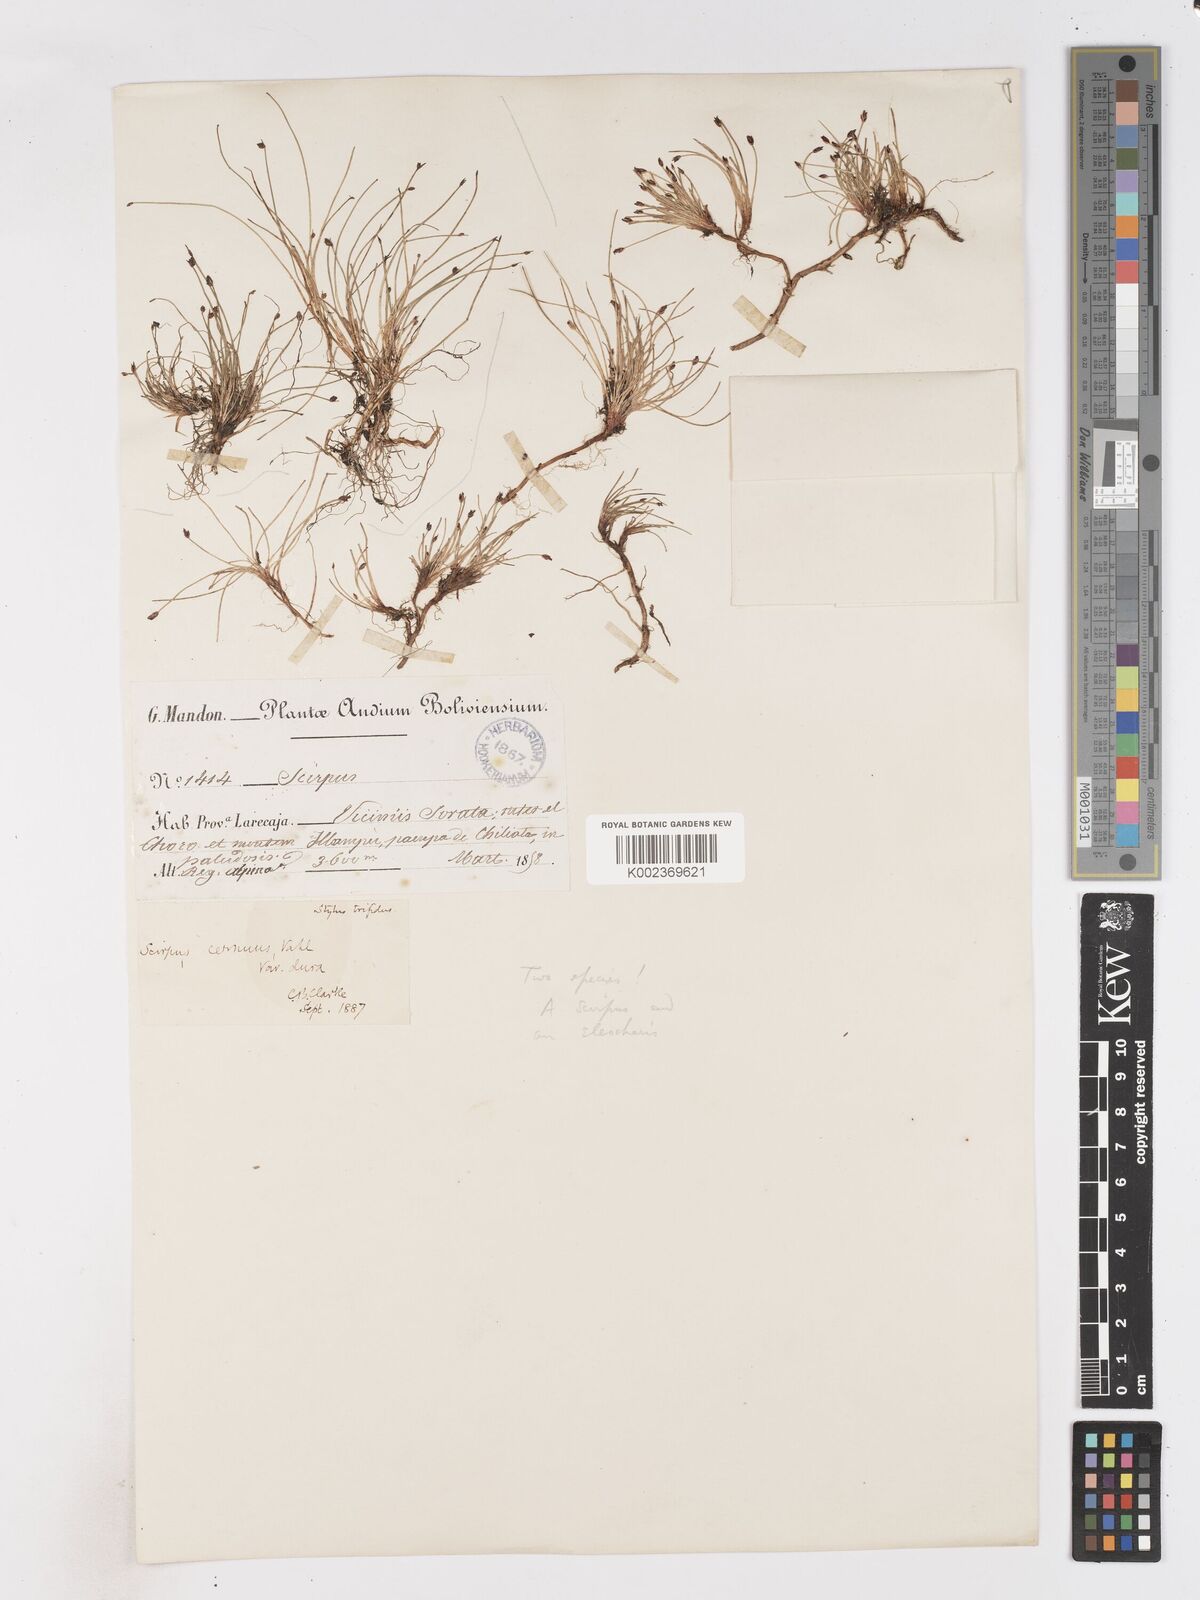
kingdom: Plantae
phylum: Tracheophyta
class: Liliopsida
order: Poales
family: Cyperaceae
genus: Isolepis
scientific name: Isolepis cernua
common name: Slender club-rush
